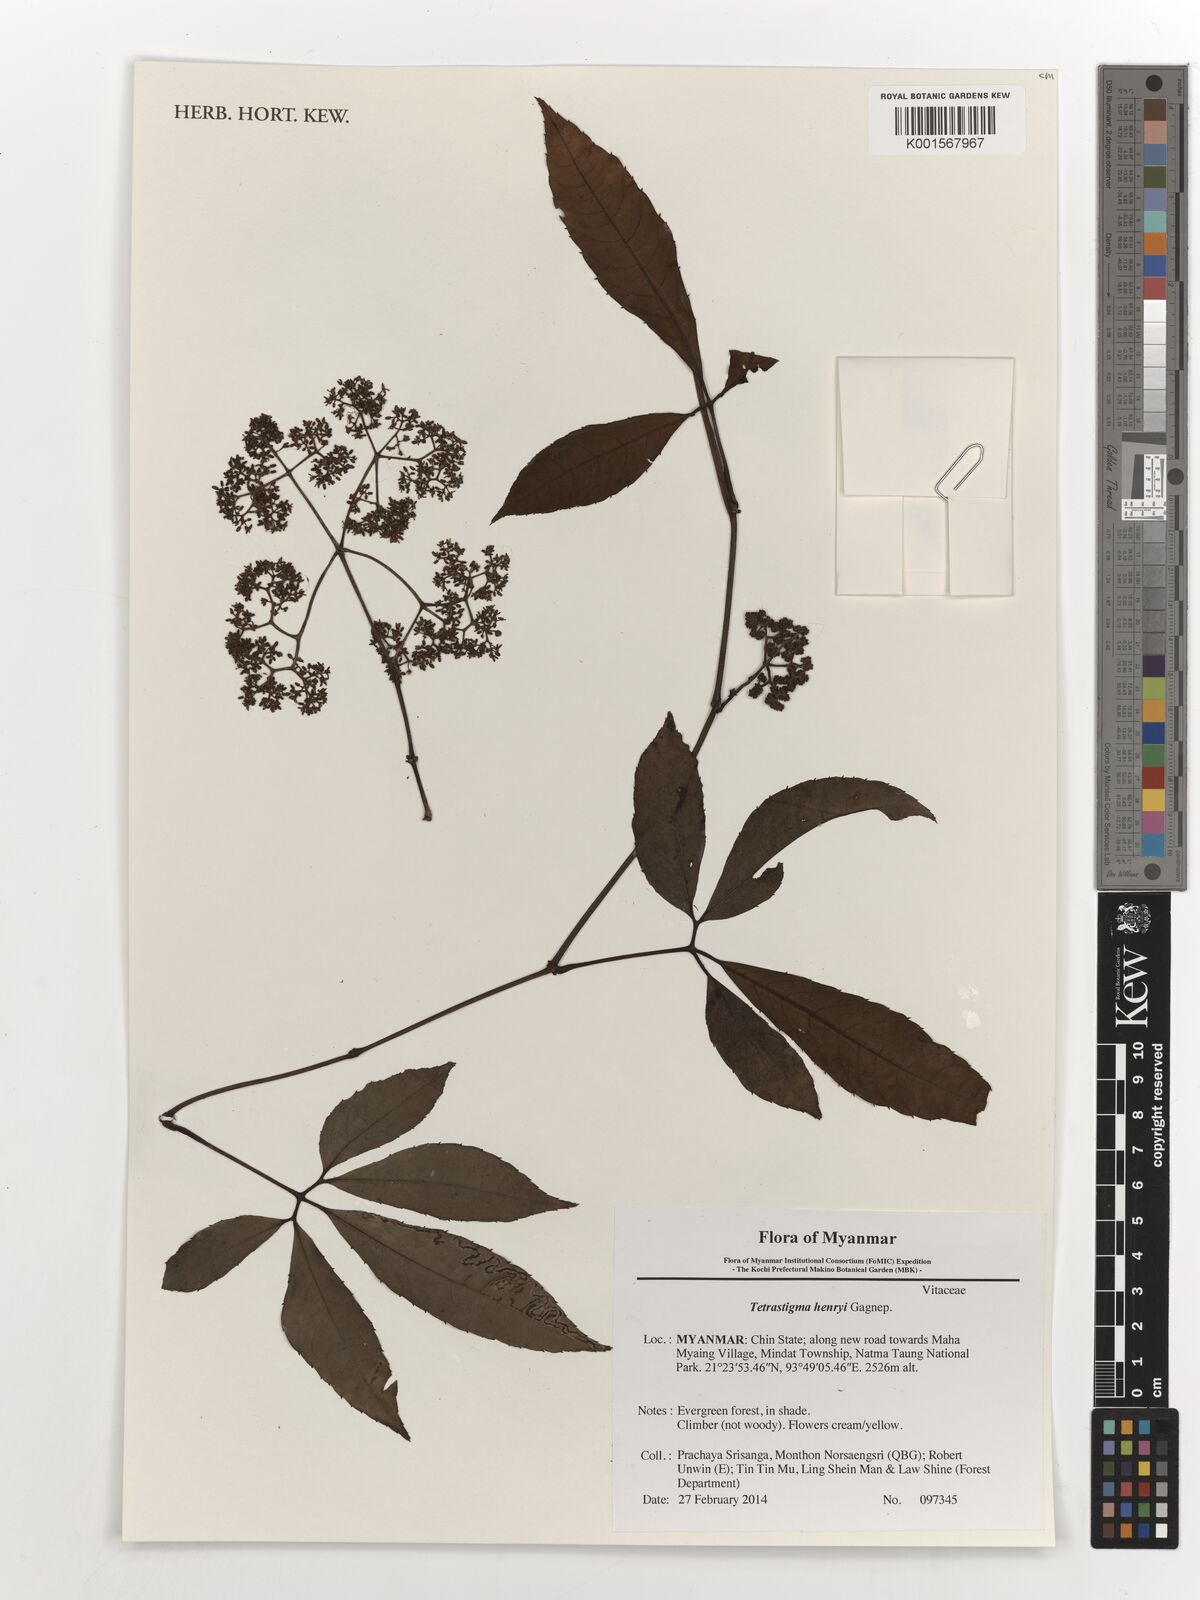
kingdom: Plantae
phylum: Tracheophyta
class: Magnoliopsida
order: Vitales
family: Vitaceae
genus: Tetrastigma
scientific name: Tetrastigma dubium
